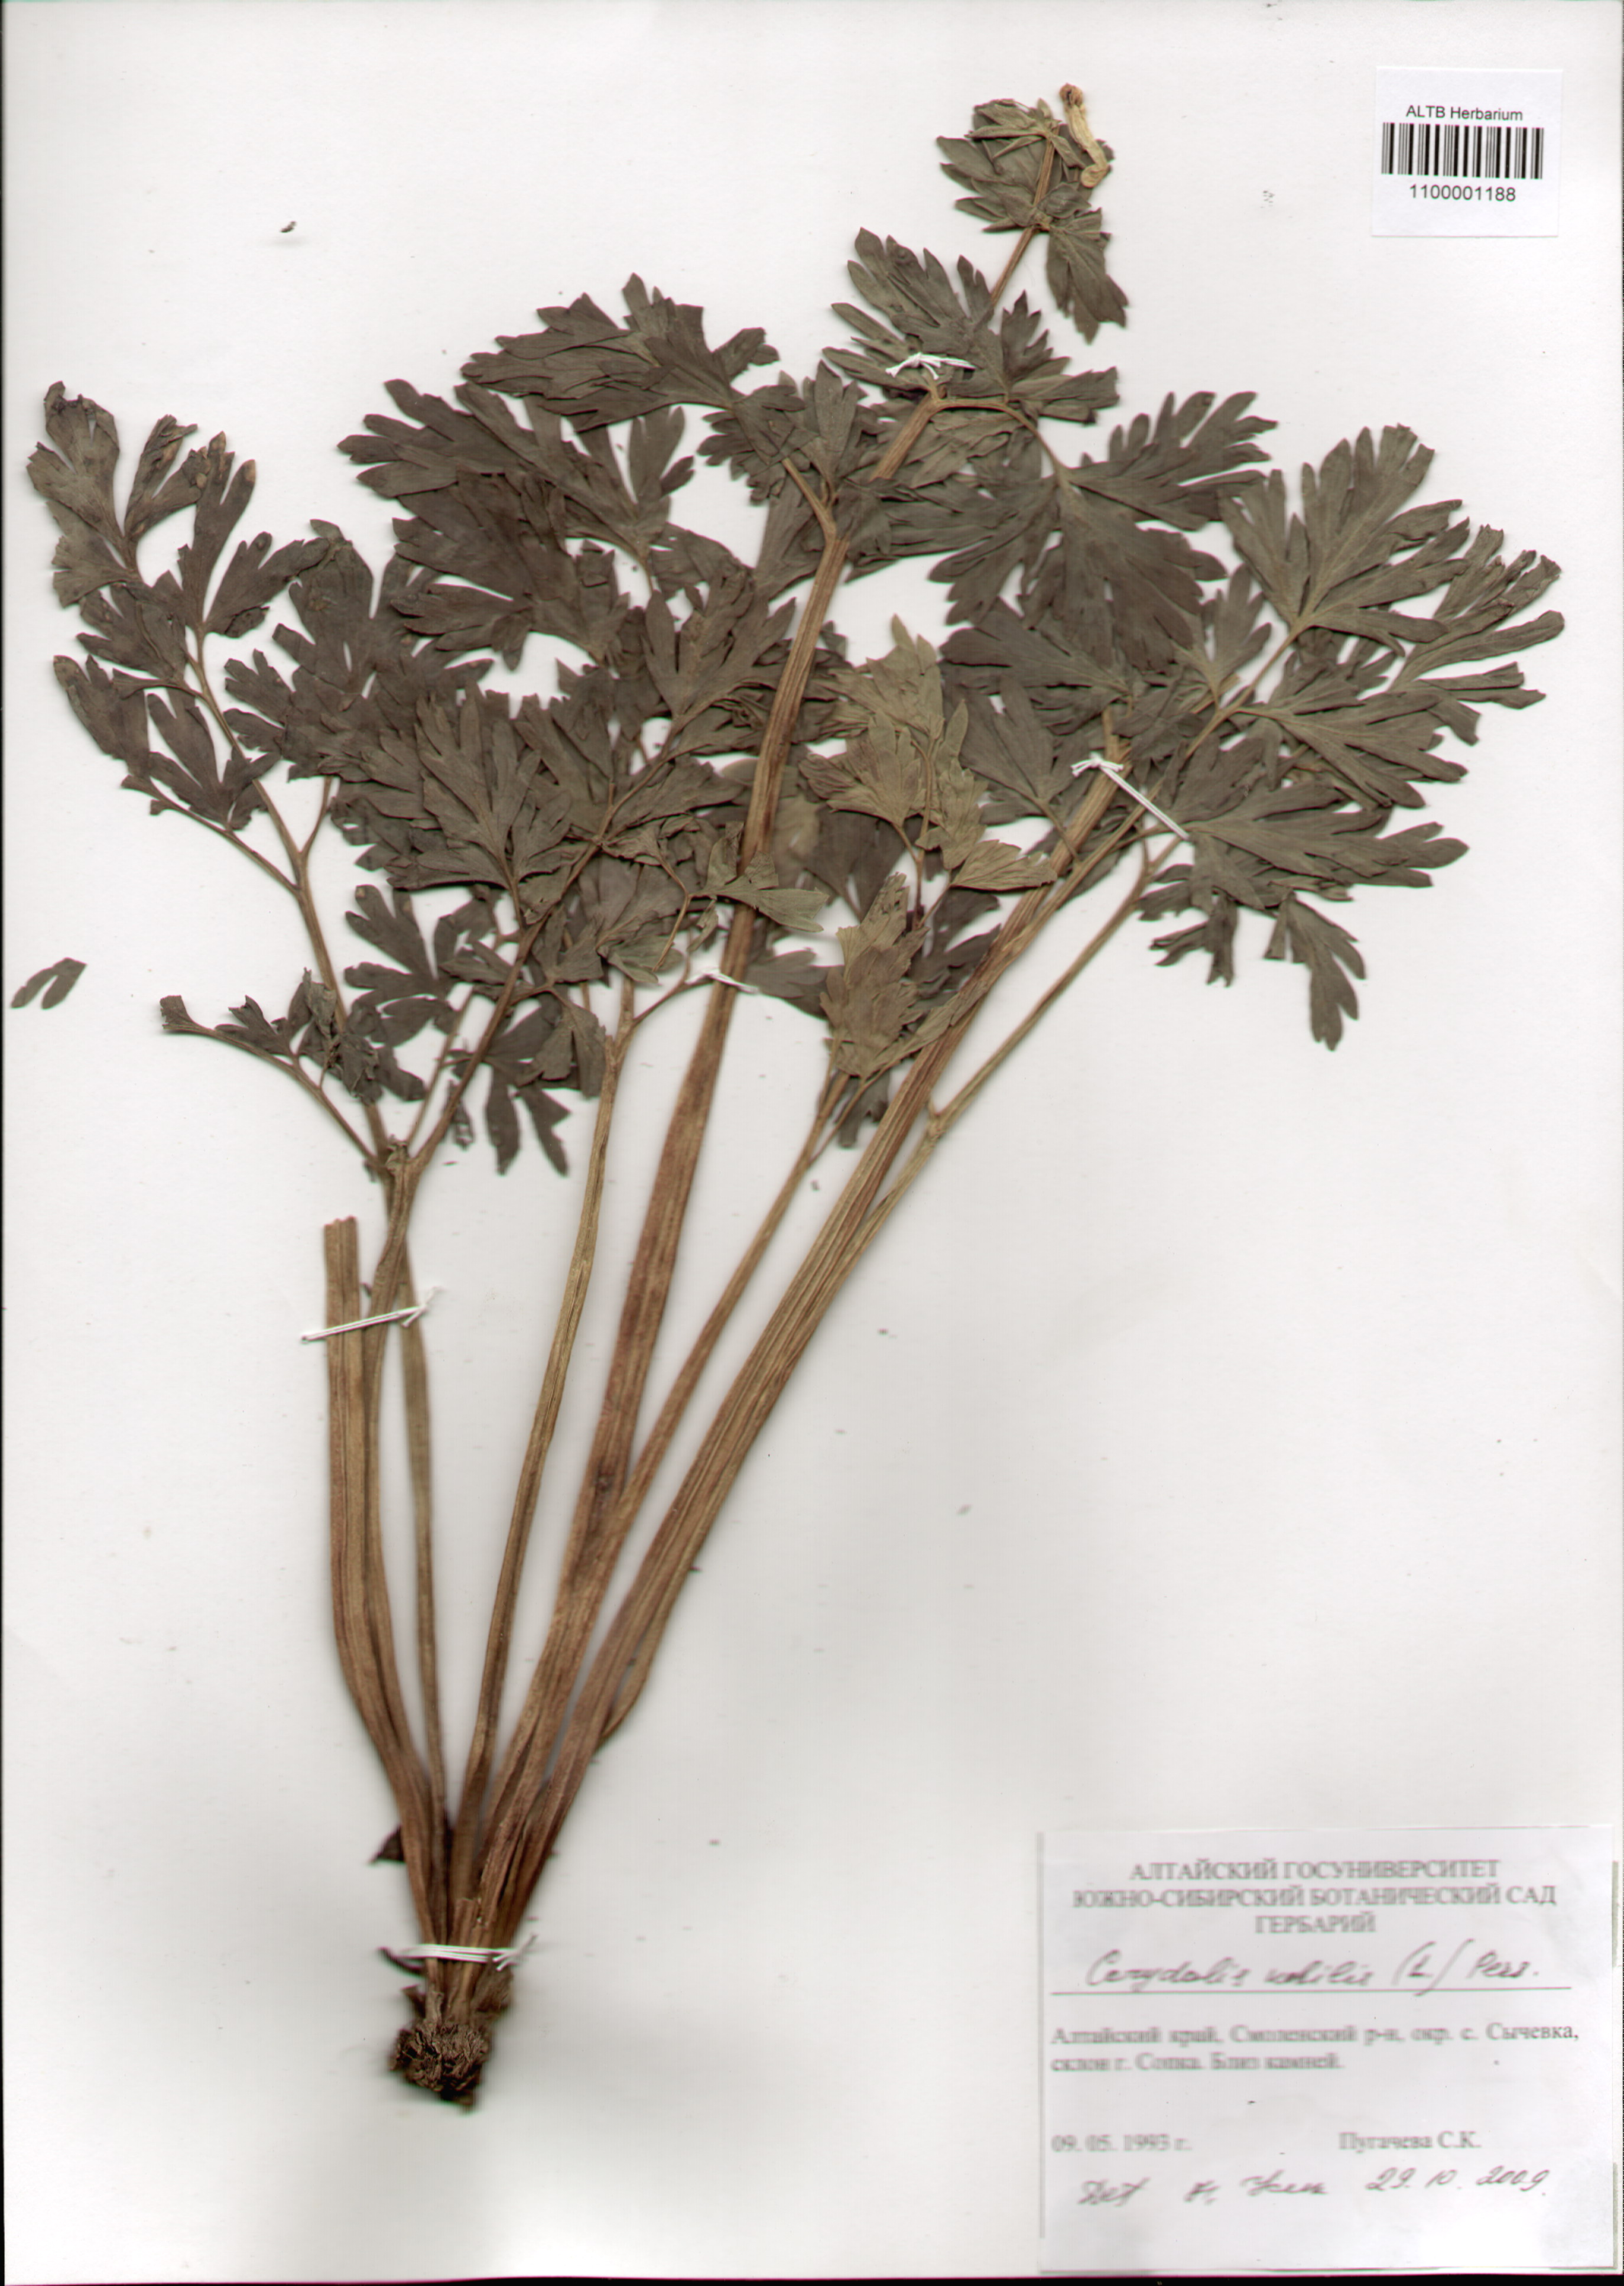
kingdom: Plantae
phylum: Tracheophyta
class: Magnoliopsida
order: Ranunculales
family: Papaveraceae
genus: Corydalis
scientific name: Corydalis nobilis
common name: Siberian corydalis
